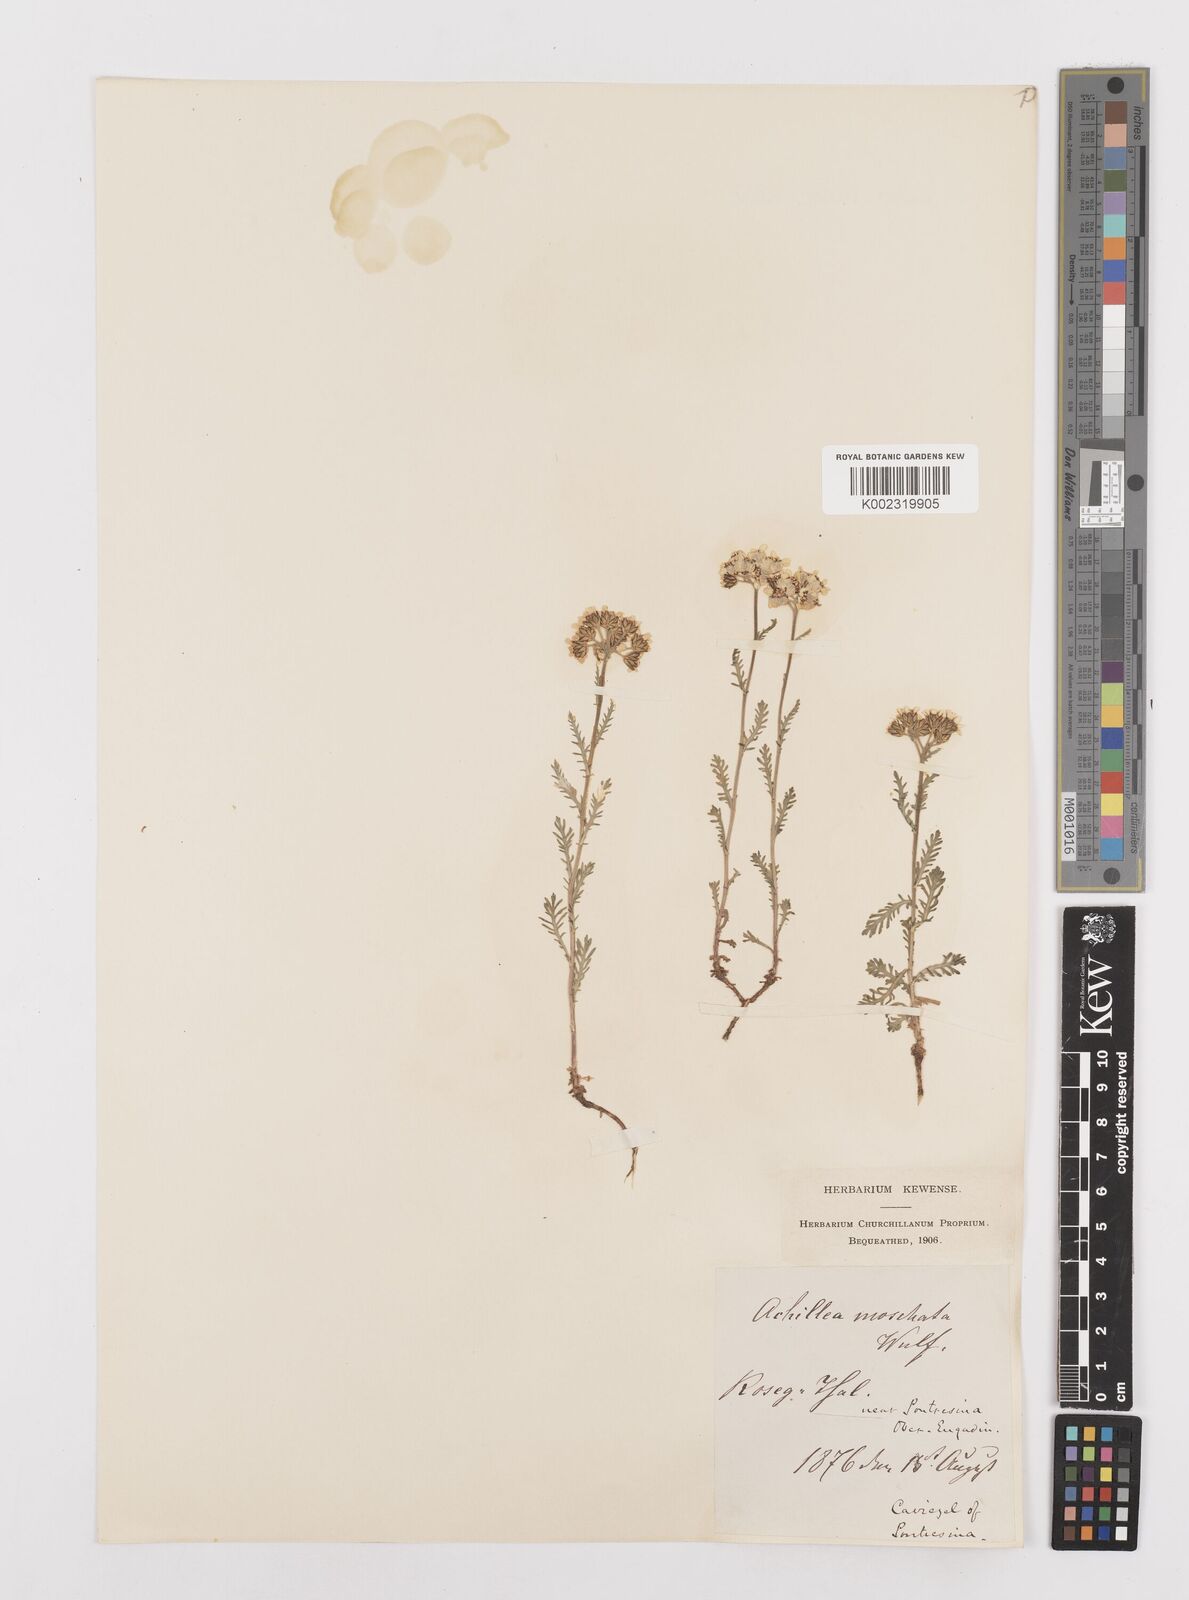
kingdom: Plantae
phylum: Tracheophyta
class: Magnoliopsida
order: Asterales
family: Asteraceae
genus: Achillea
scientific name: Achillea erba-rotta
